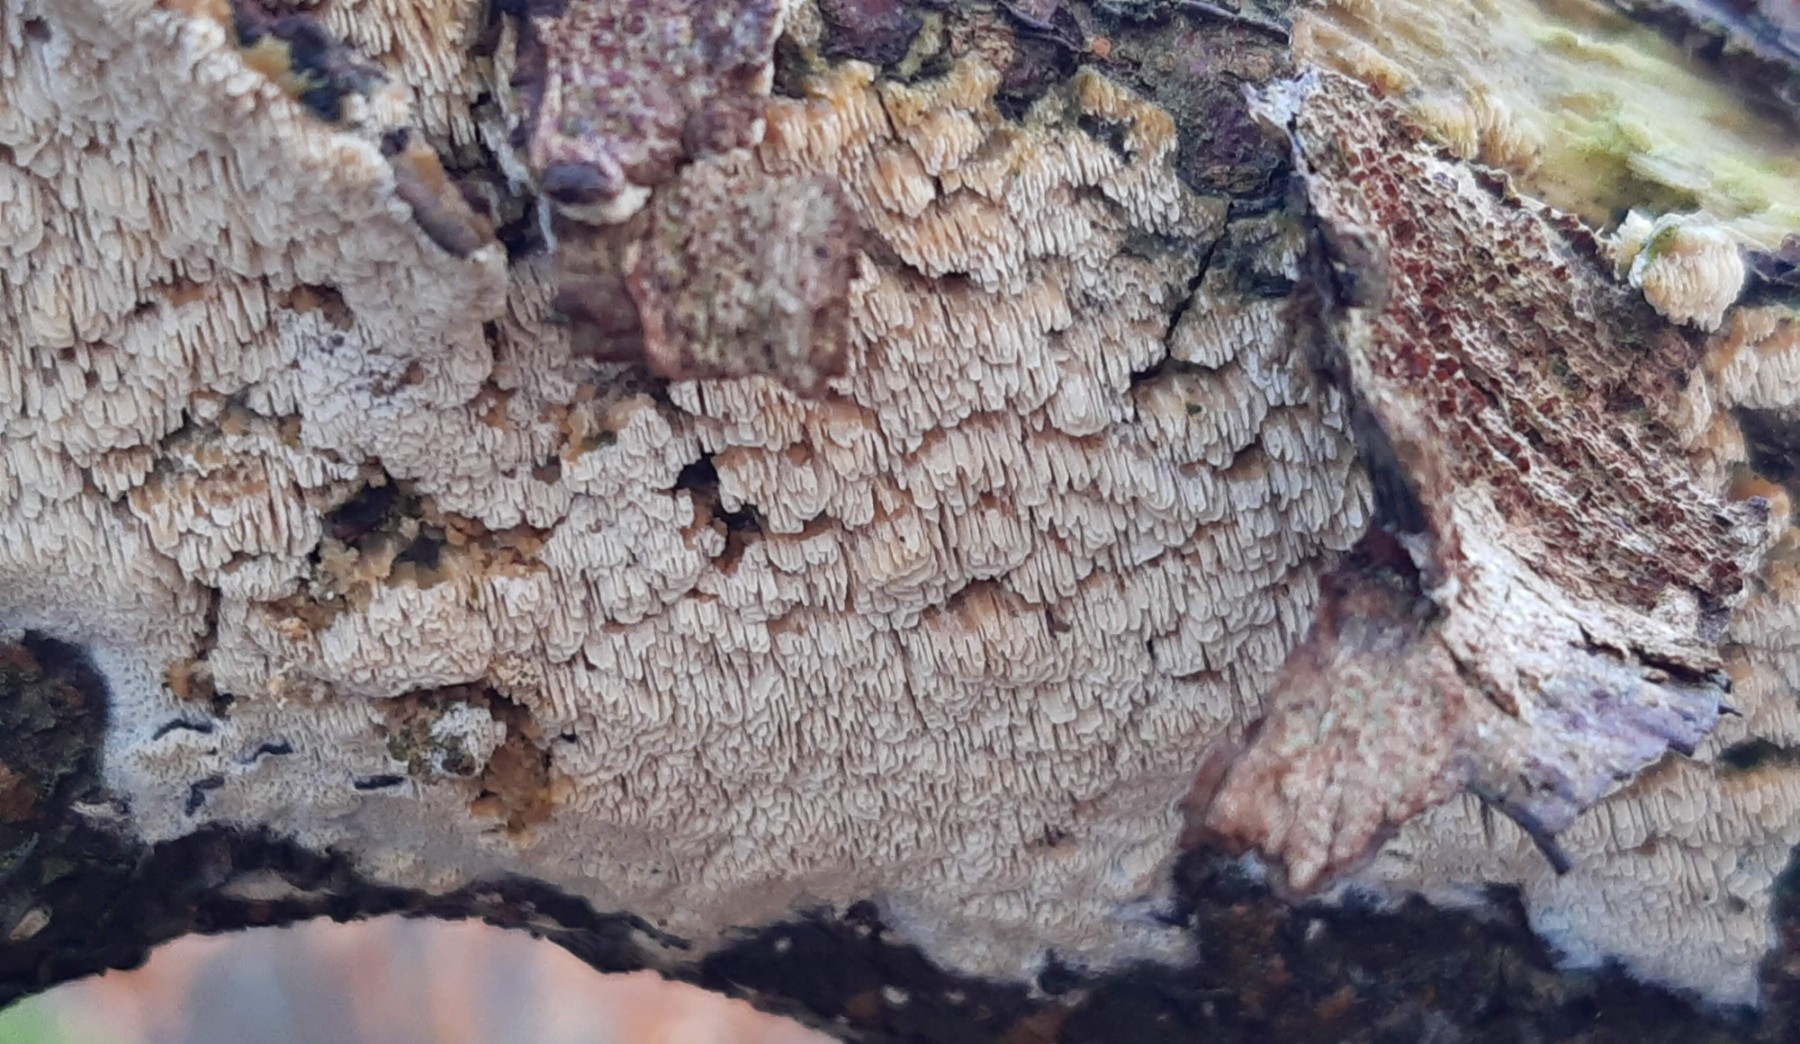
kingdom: Fungi
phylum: Basidiomycota
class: Agaricomycetes
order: Hymenochaetales
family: Schizoporaceae
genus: Schizopora
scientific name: Schizopora paradoxa
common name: hvid tandsvamp
